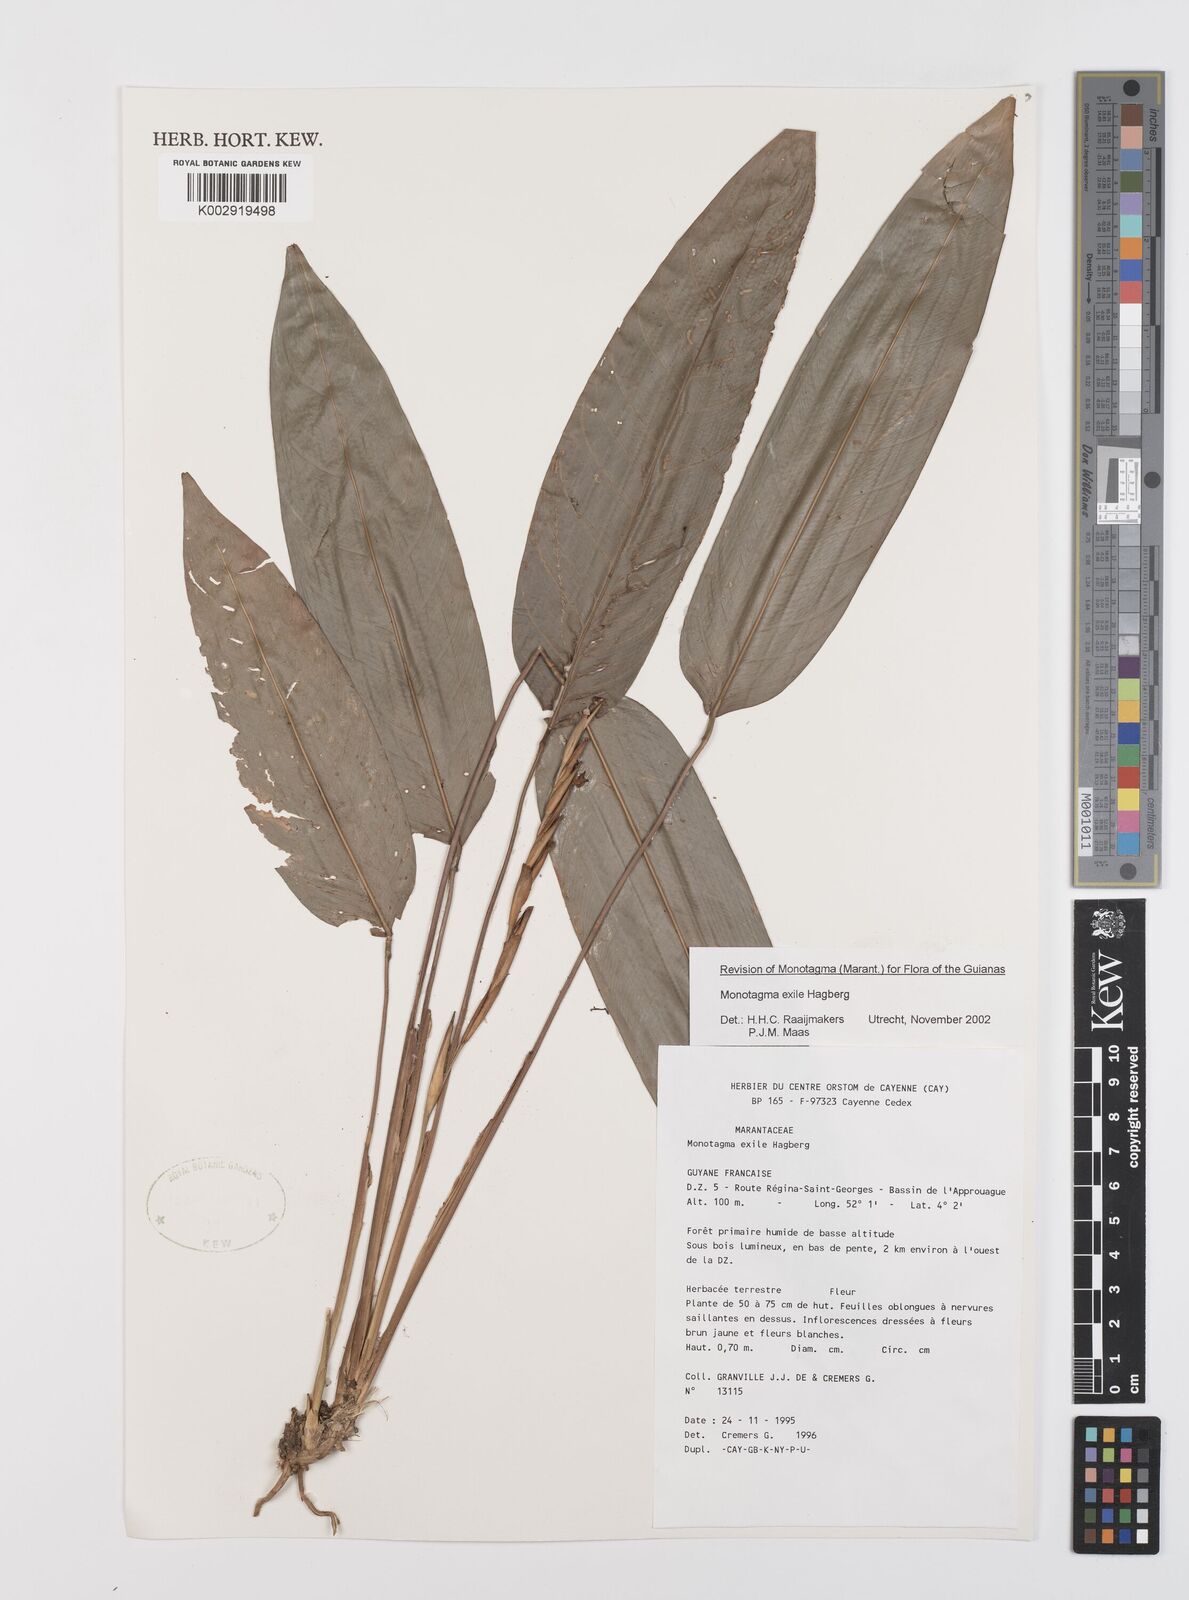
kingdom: Plantae
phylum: Tracheophyta
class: Liliopsida
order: Zingiberales
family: Marantaceae
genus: Monotagma
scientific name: Monotagma exile
